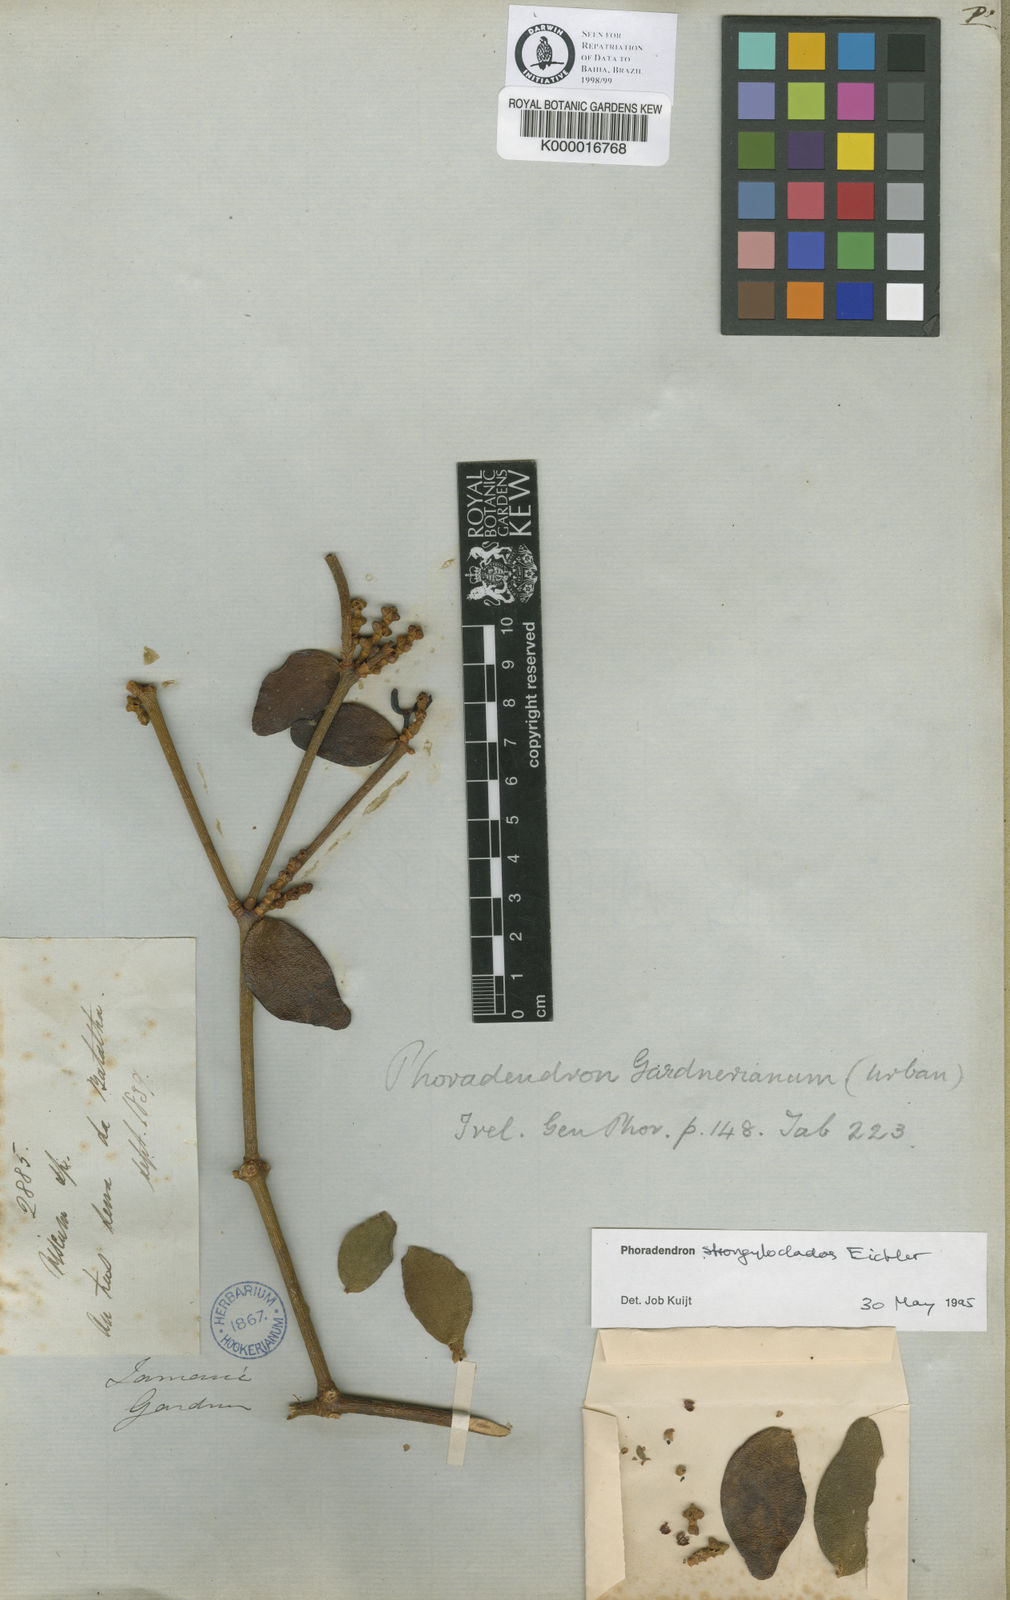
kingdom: Plantae
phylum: Tracheophyta
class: Magnoliopsida
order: Santalales
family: Viscaceae
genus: Phoradendron
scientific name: Phoradendron strongyloclados
